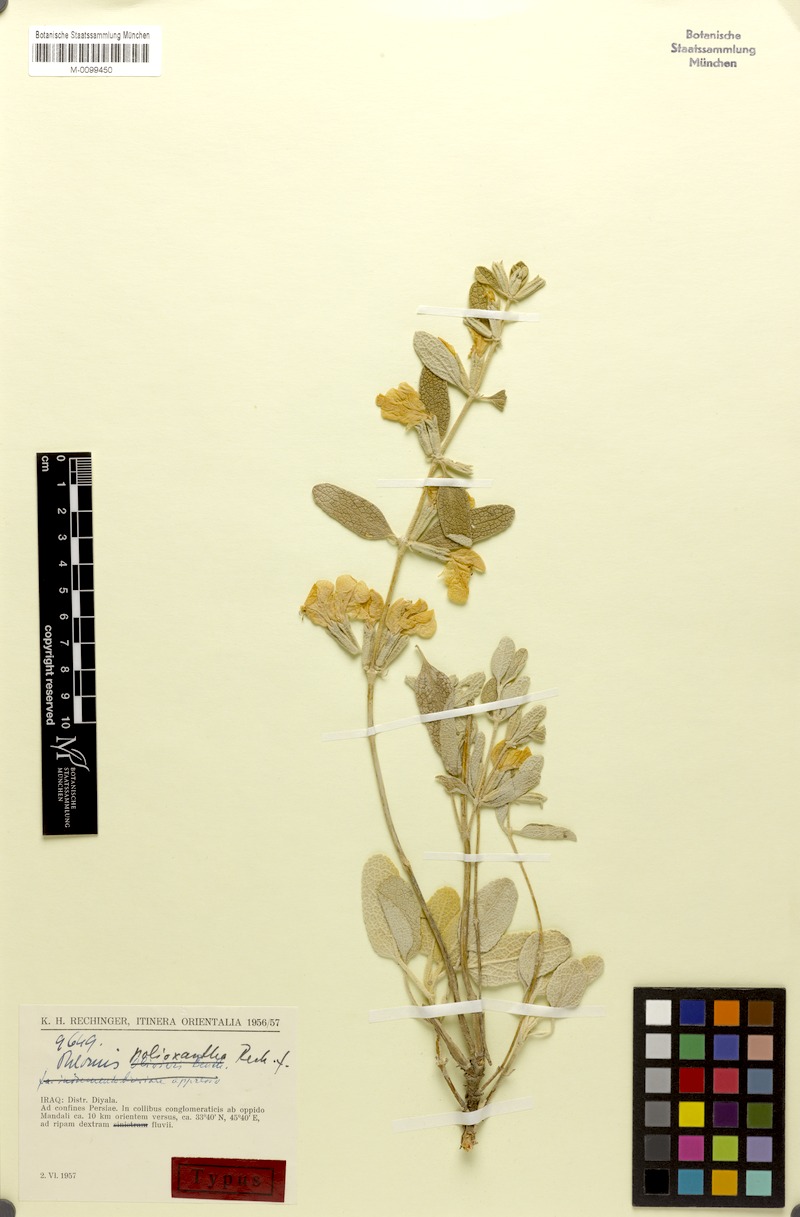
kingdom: Plantae
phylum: Tracheophyta
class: Magnoliopsida
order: Lamiales
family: Lamiaceae
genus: Phlomis
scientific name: Phlomis polioxantha
